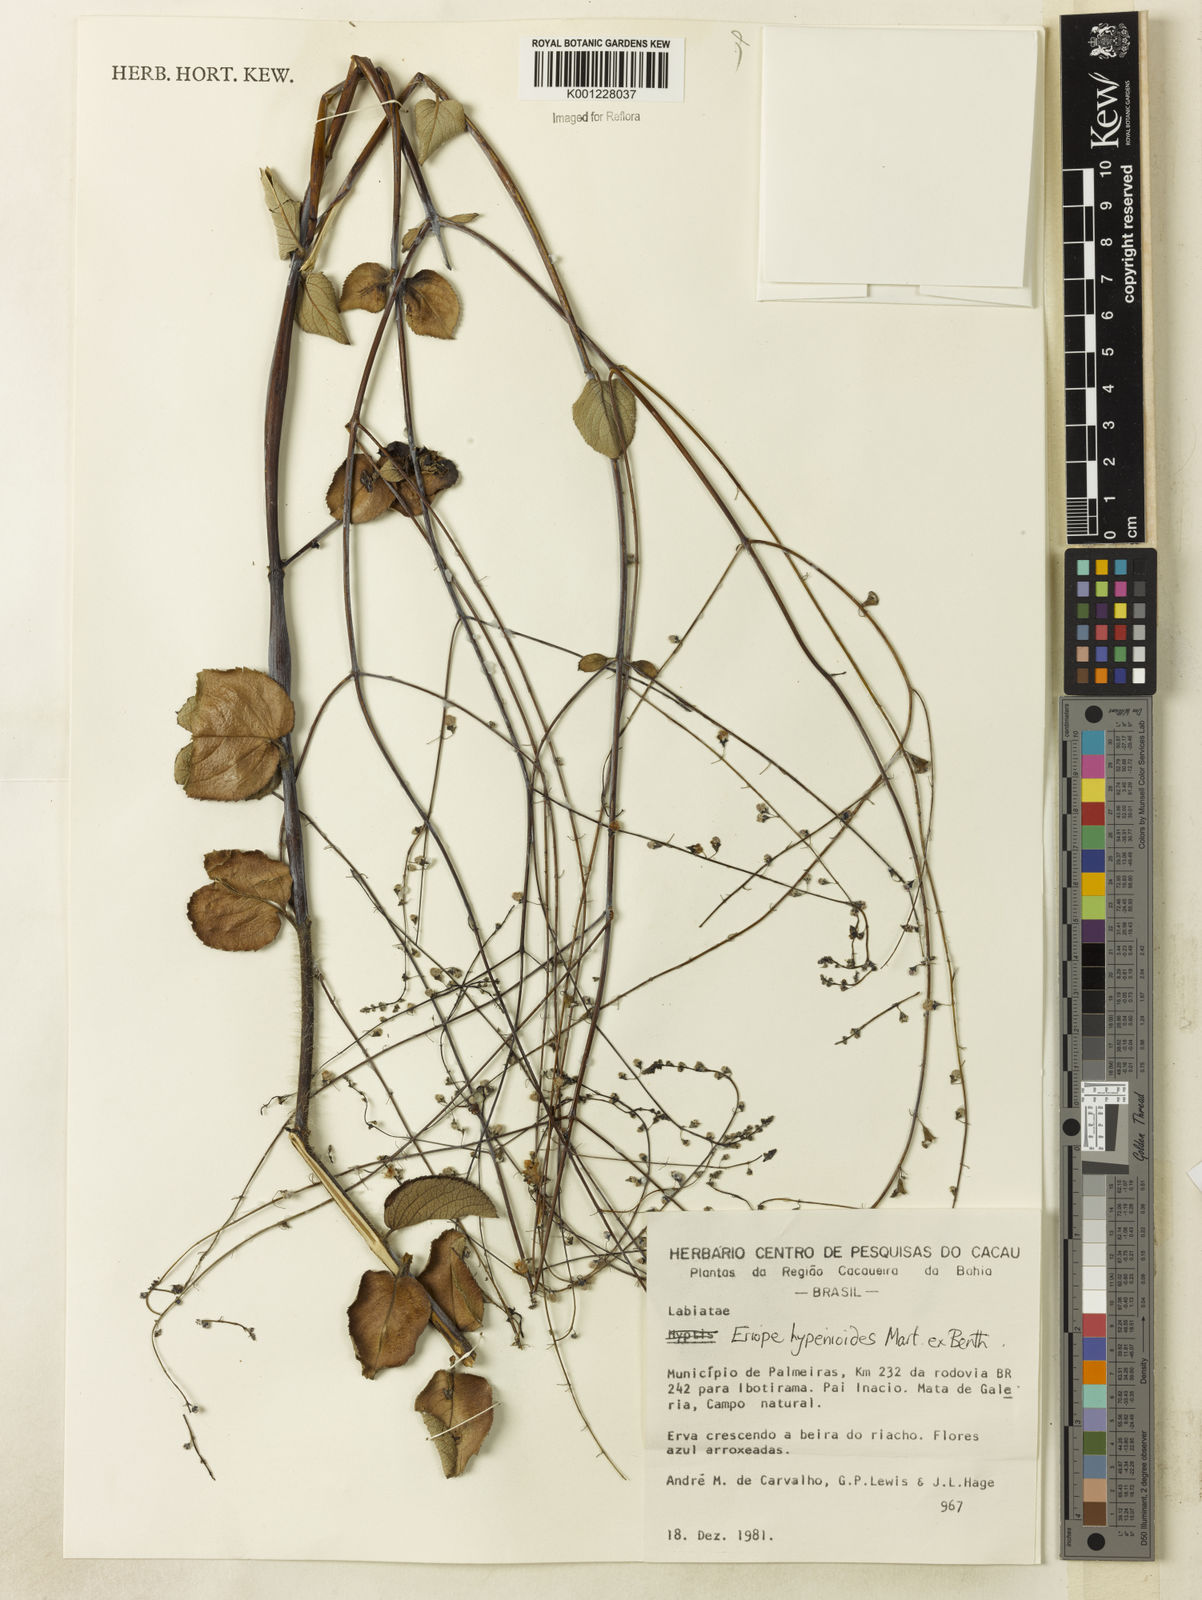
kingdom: Plantae
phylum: Tracheophyta
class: Magnoliopsida
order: Lamiales
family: Lamiaceae
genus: Eriope
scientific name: Eriope hypenioides
